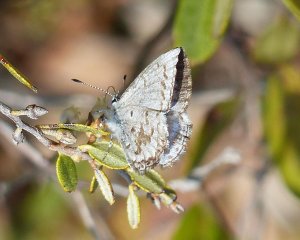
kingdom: Animalia
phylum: Arthropoda
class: Insecta
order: Lepidoptera
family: Lycaenidae
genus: Celastrina
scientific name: Celastrina lucia
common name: Northern Spring Azure
